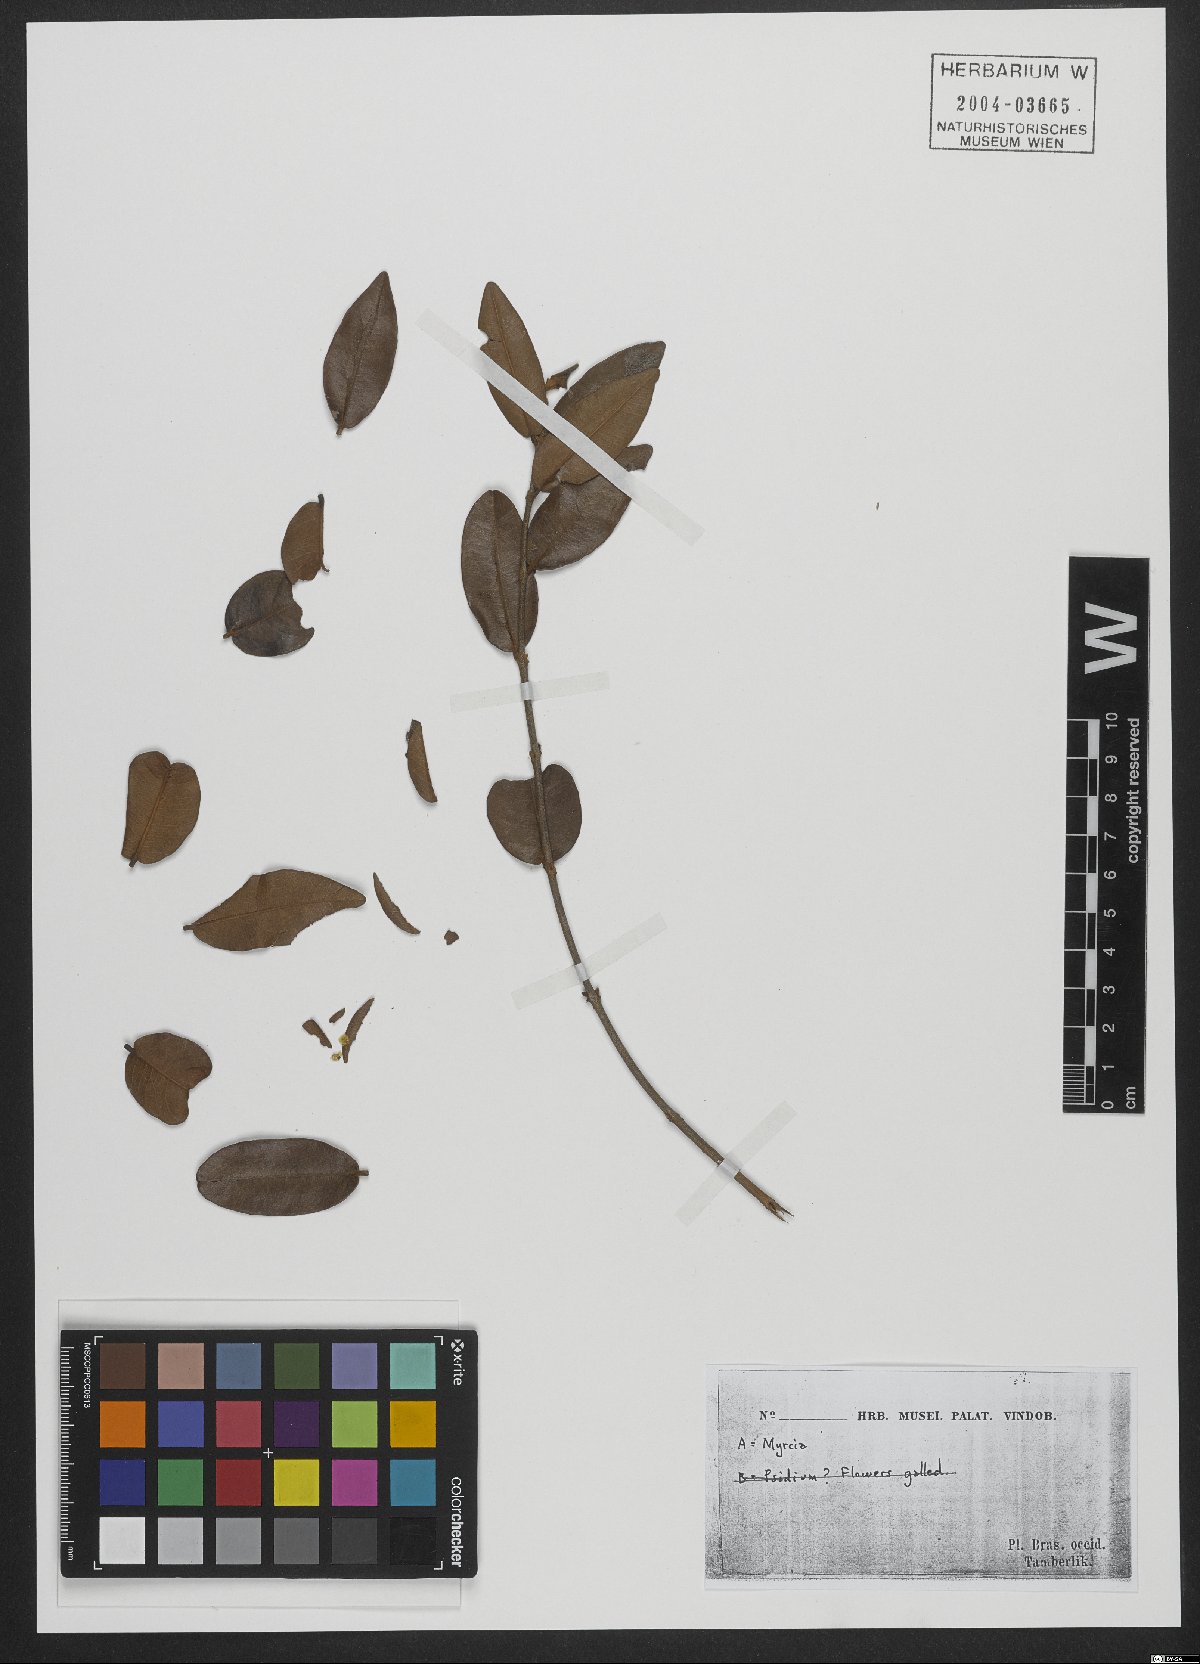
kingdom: Plantae
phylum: Tracheophyta
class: Magnoliopsida
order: Myrtales
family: Myrtaceae
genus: Myrcia
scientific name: Myrcia
